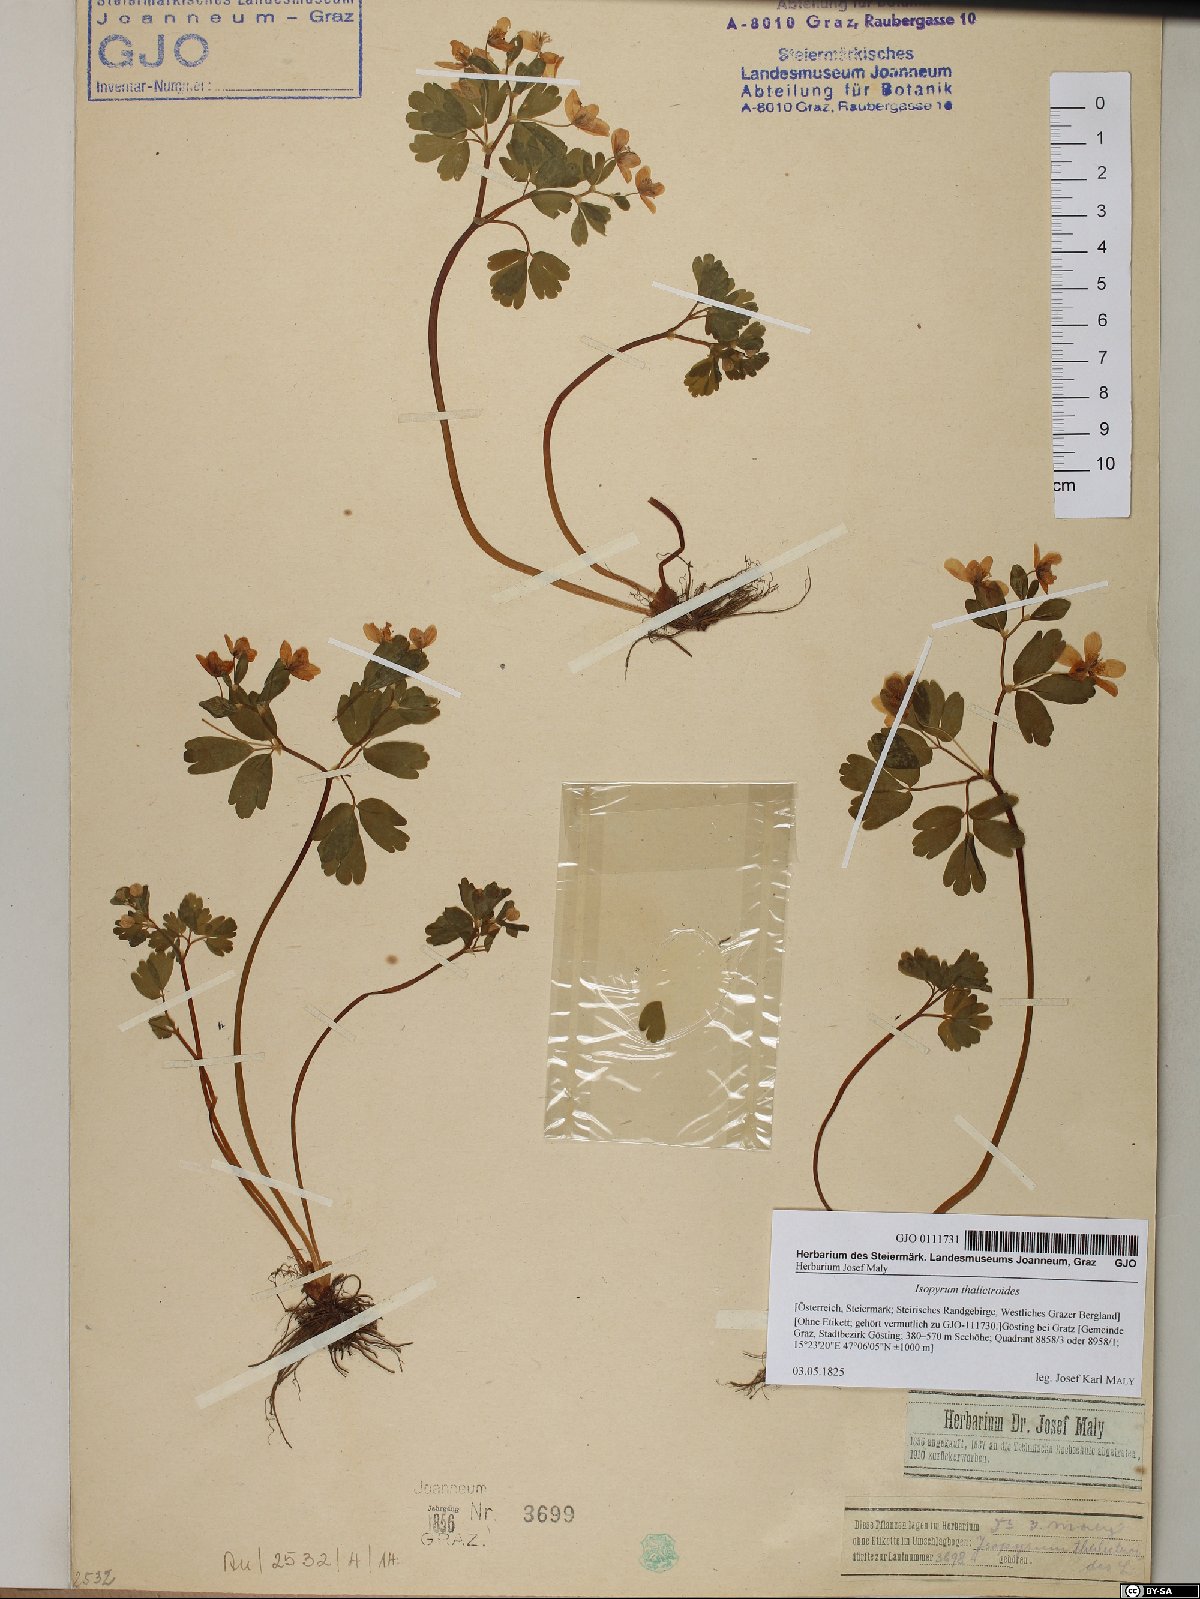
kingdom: Plantae
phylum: Tracheophyta
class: Magnoliopsida
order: Ranunculales
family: Ranunculaceae
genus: Isopyrum
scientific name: Isopyrum thalictroides
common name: Isopyrum
